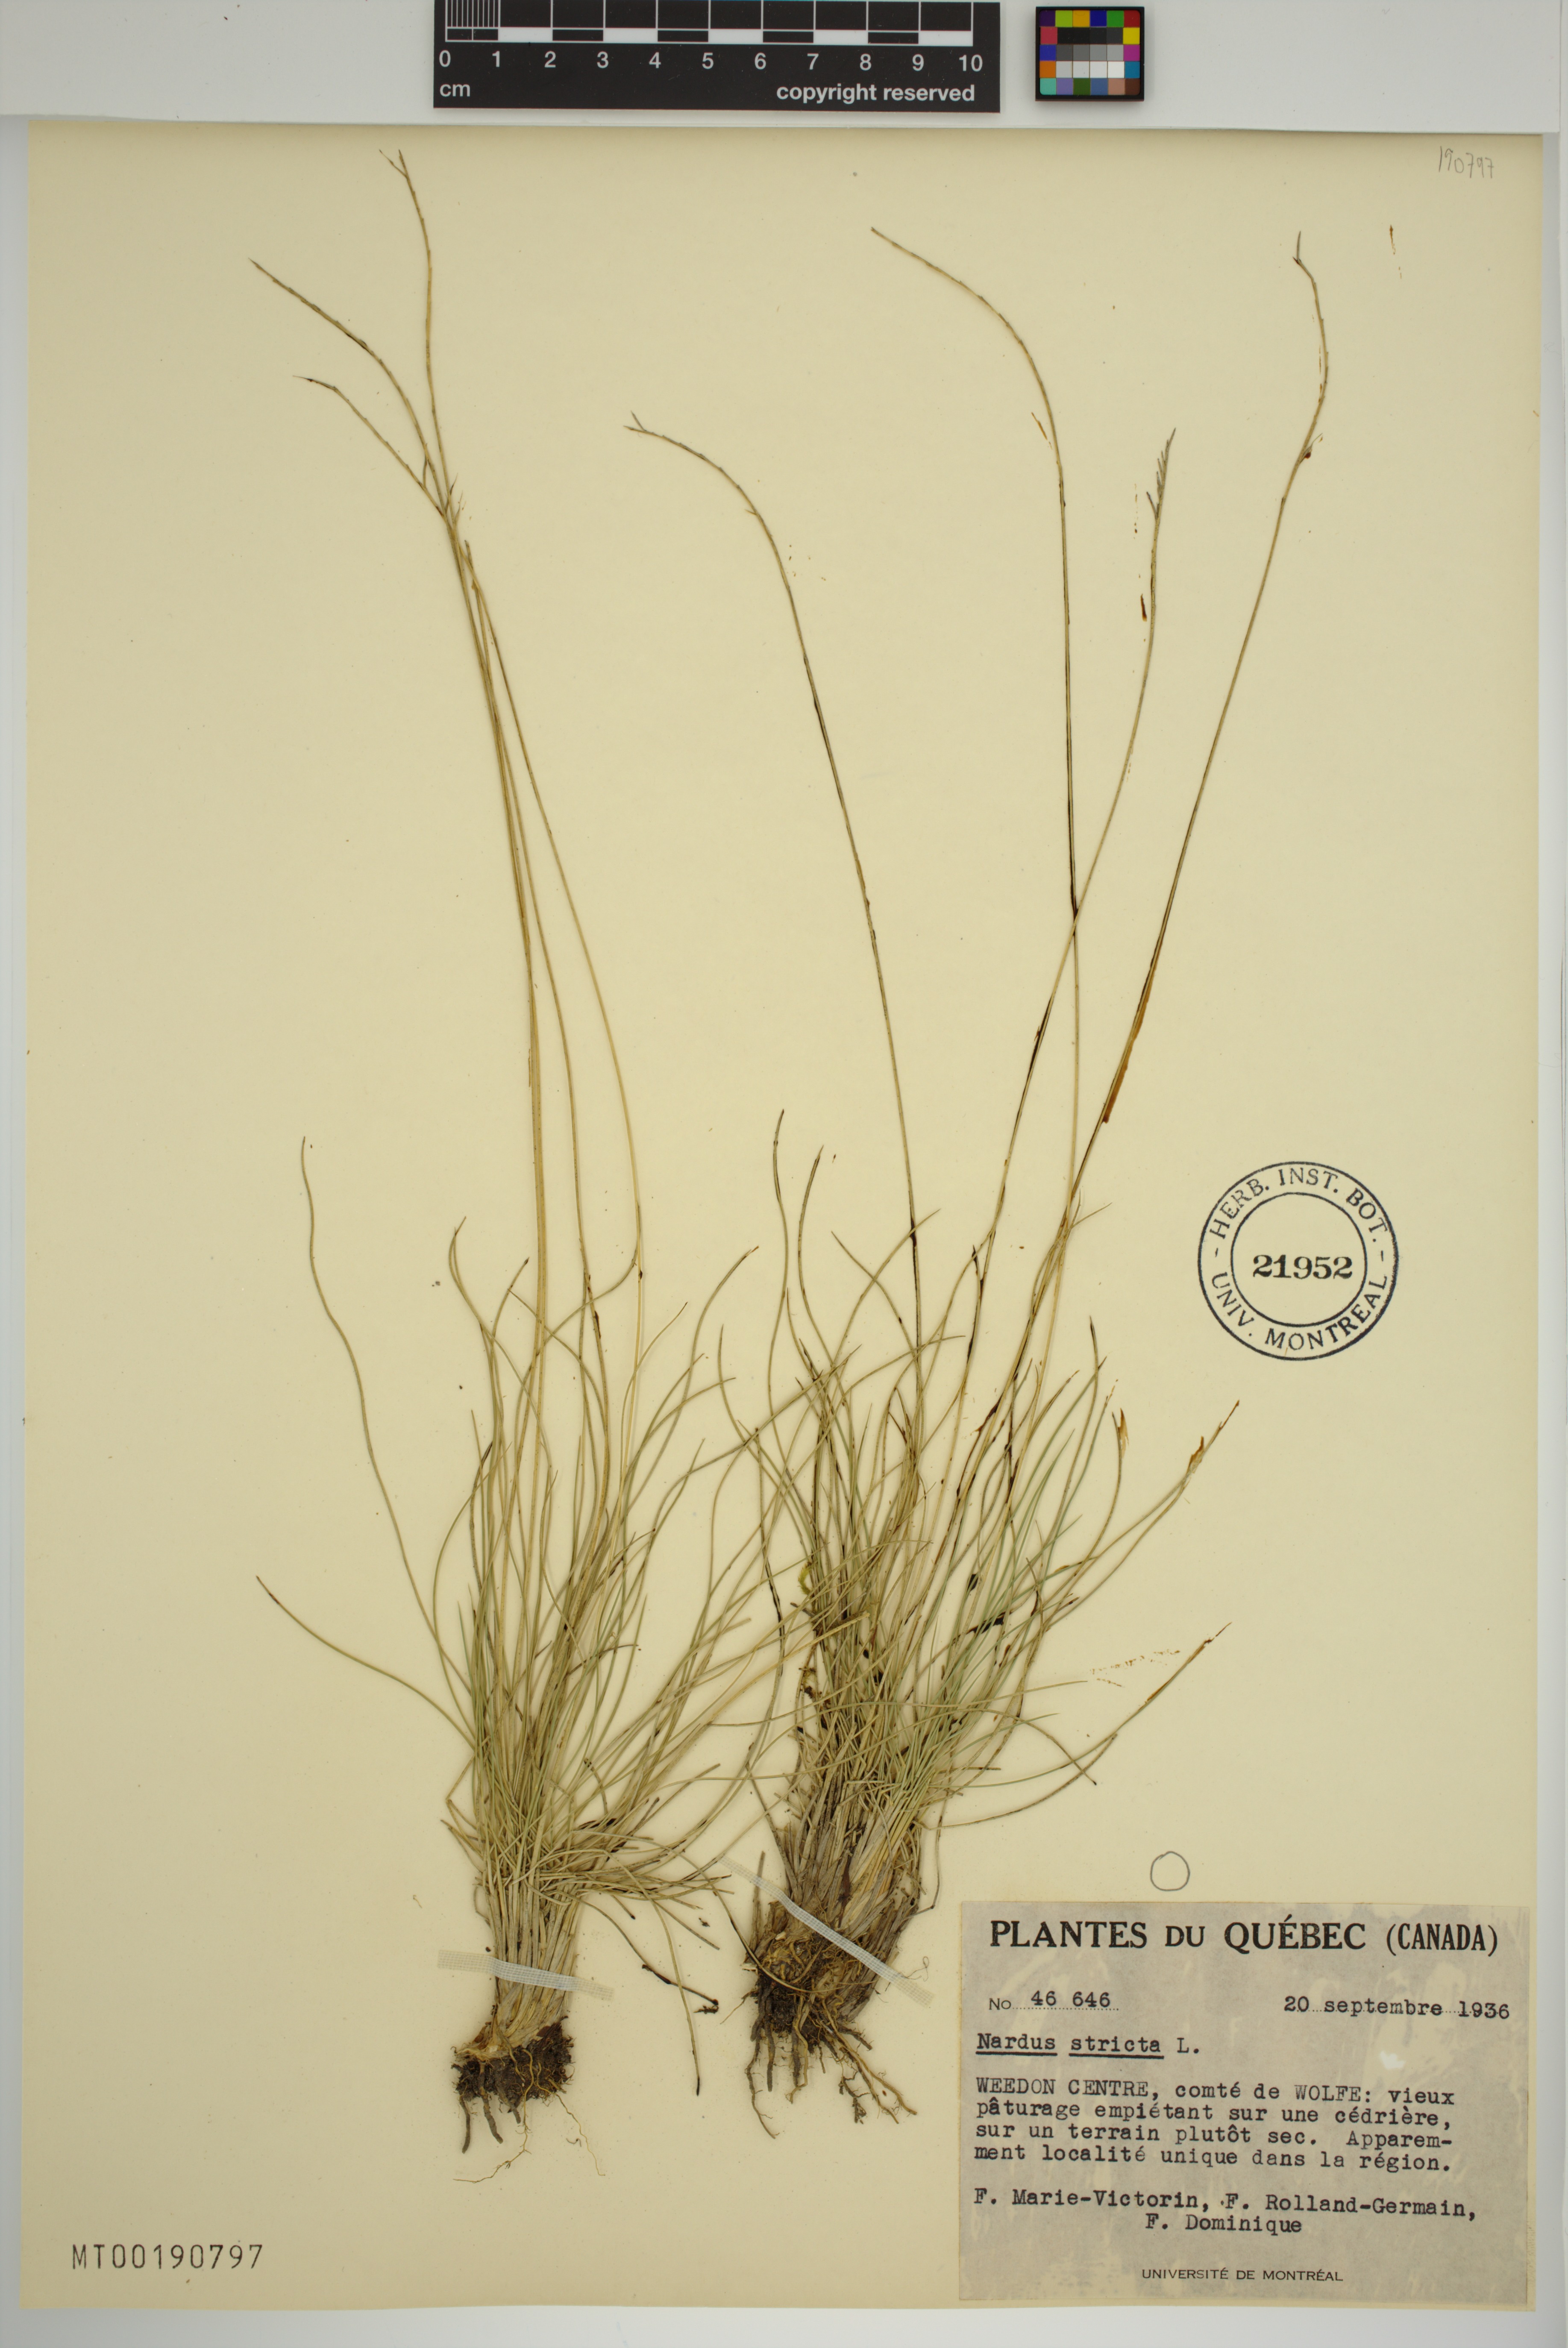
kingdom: Plantae
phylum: Tracheophyta
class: Liliopsida
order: Poales
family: Poaceae
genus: Nardus
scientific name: Nardus stricta
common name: Mat-grass
